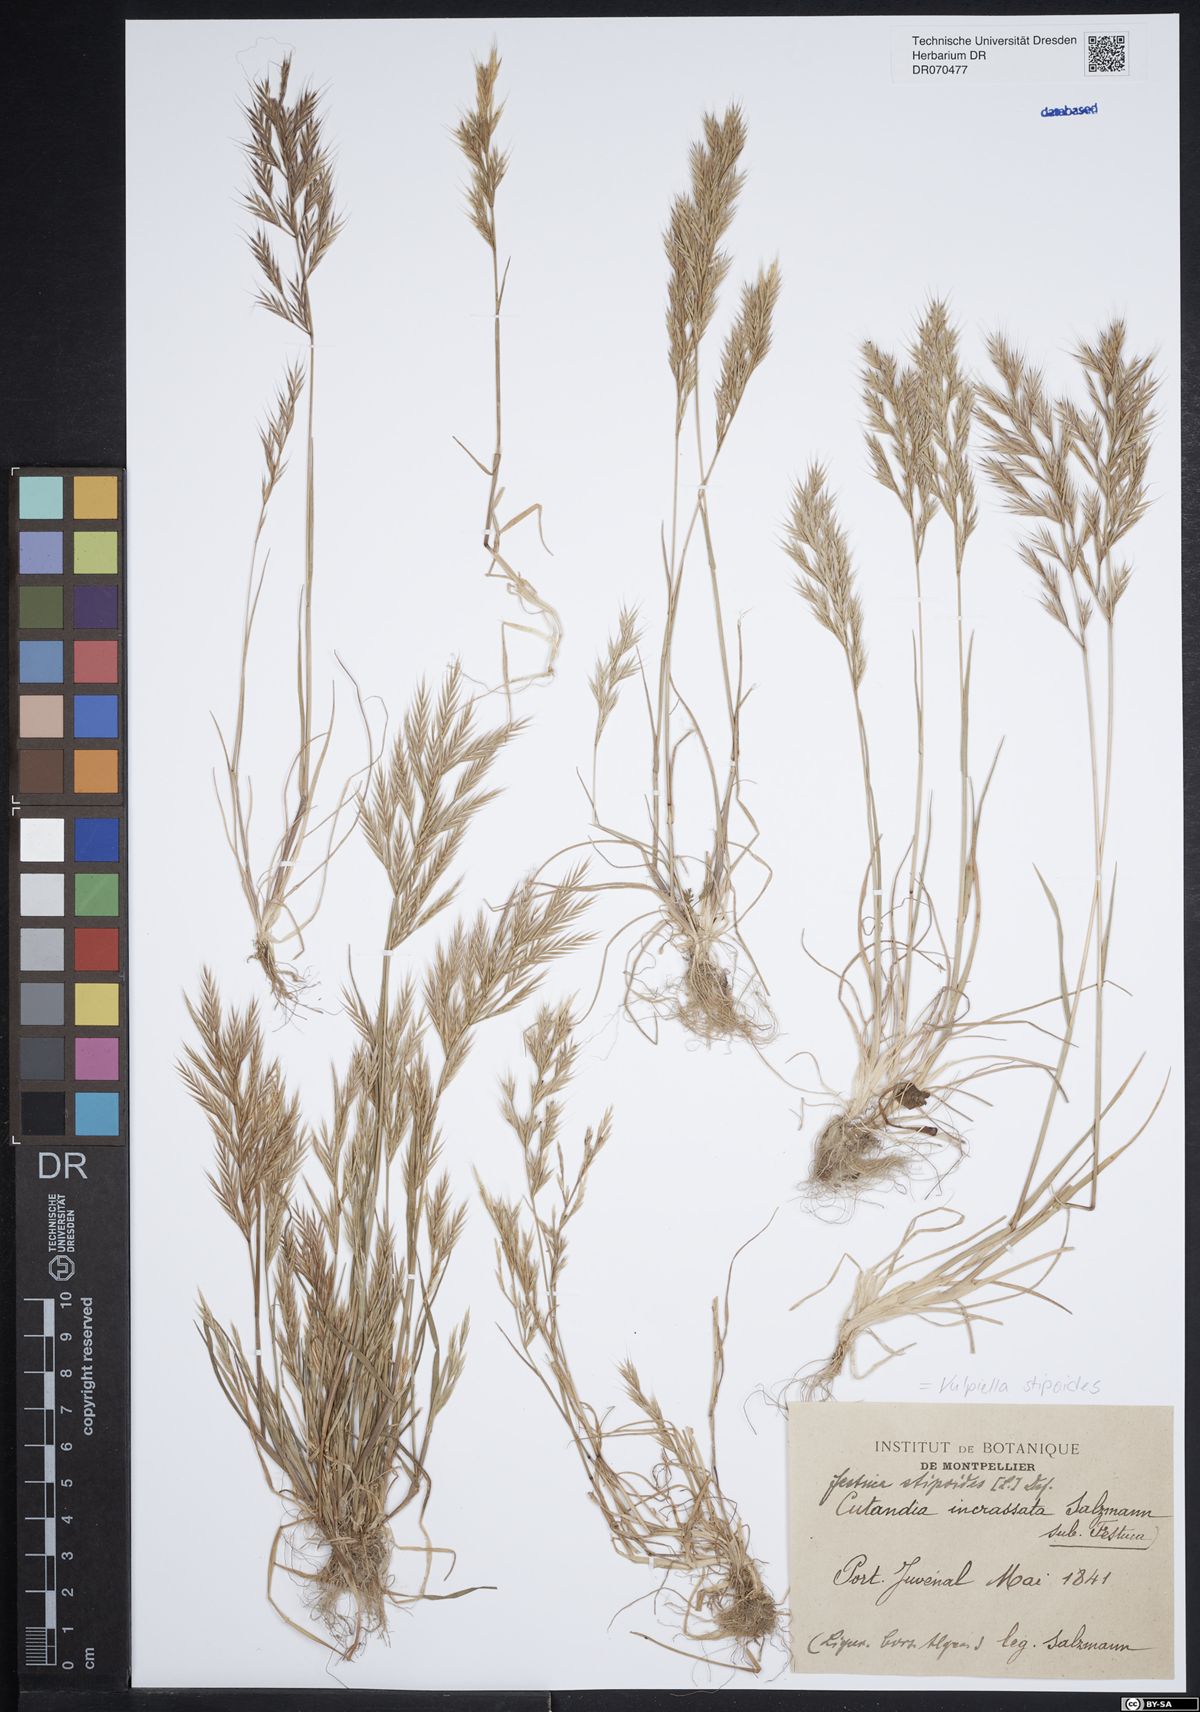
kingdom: Plantae
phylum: Tracheophyta
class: Liliopsida
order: Poales
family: Poaceae
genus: Vulpiella
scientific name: Vulpiella stipoides
